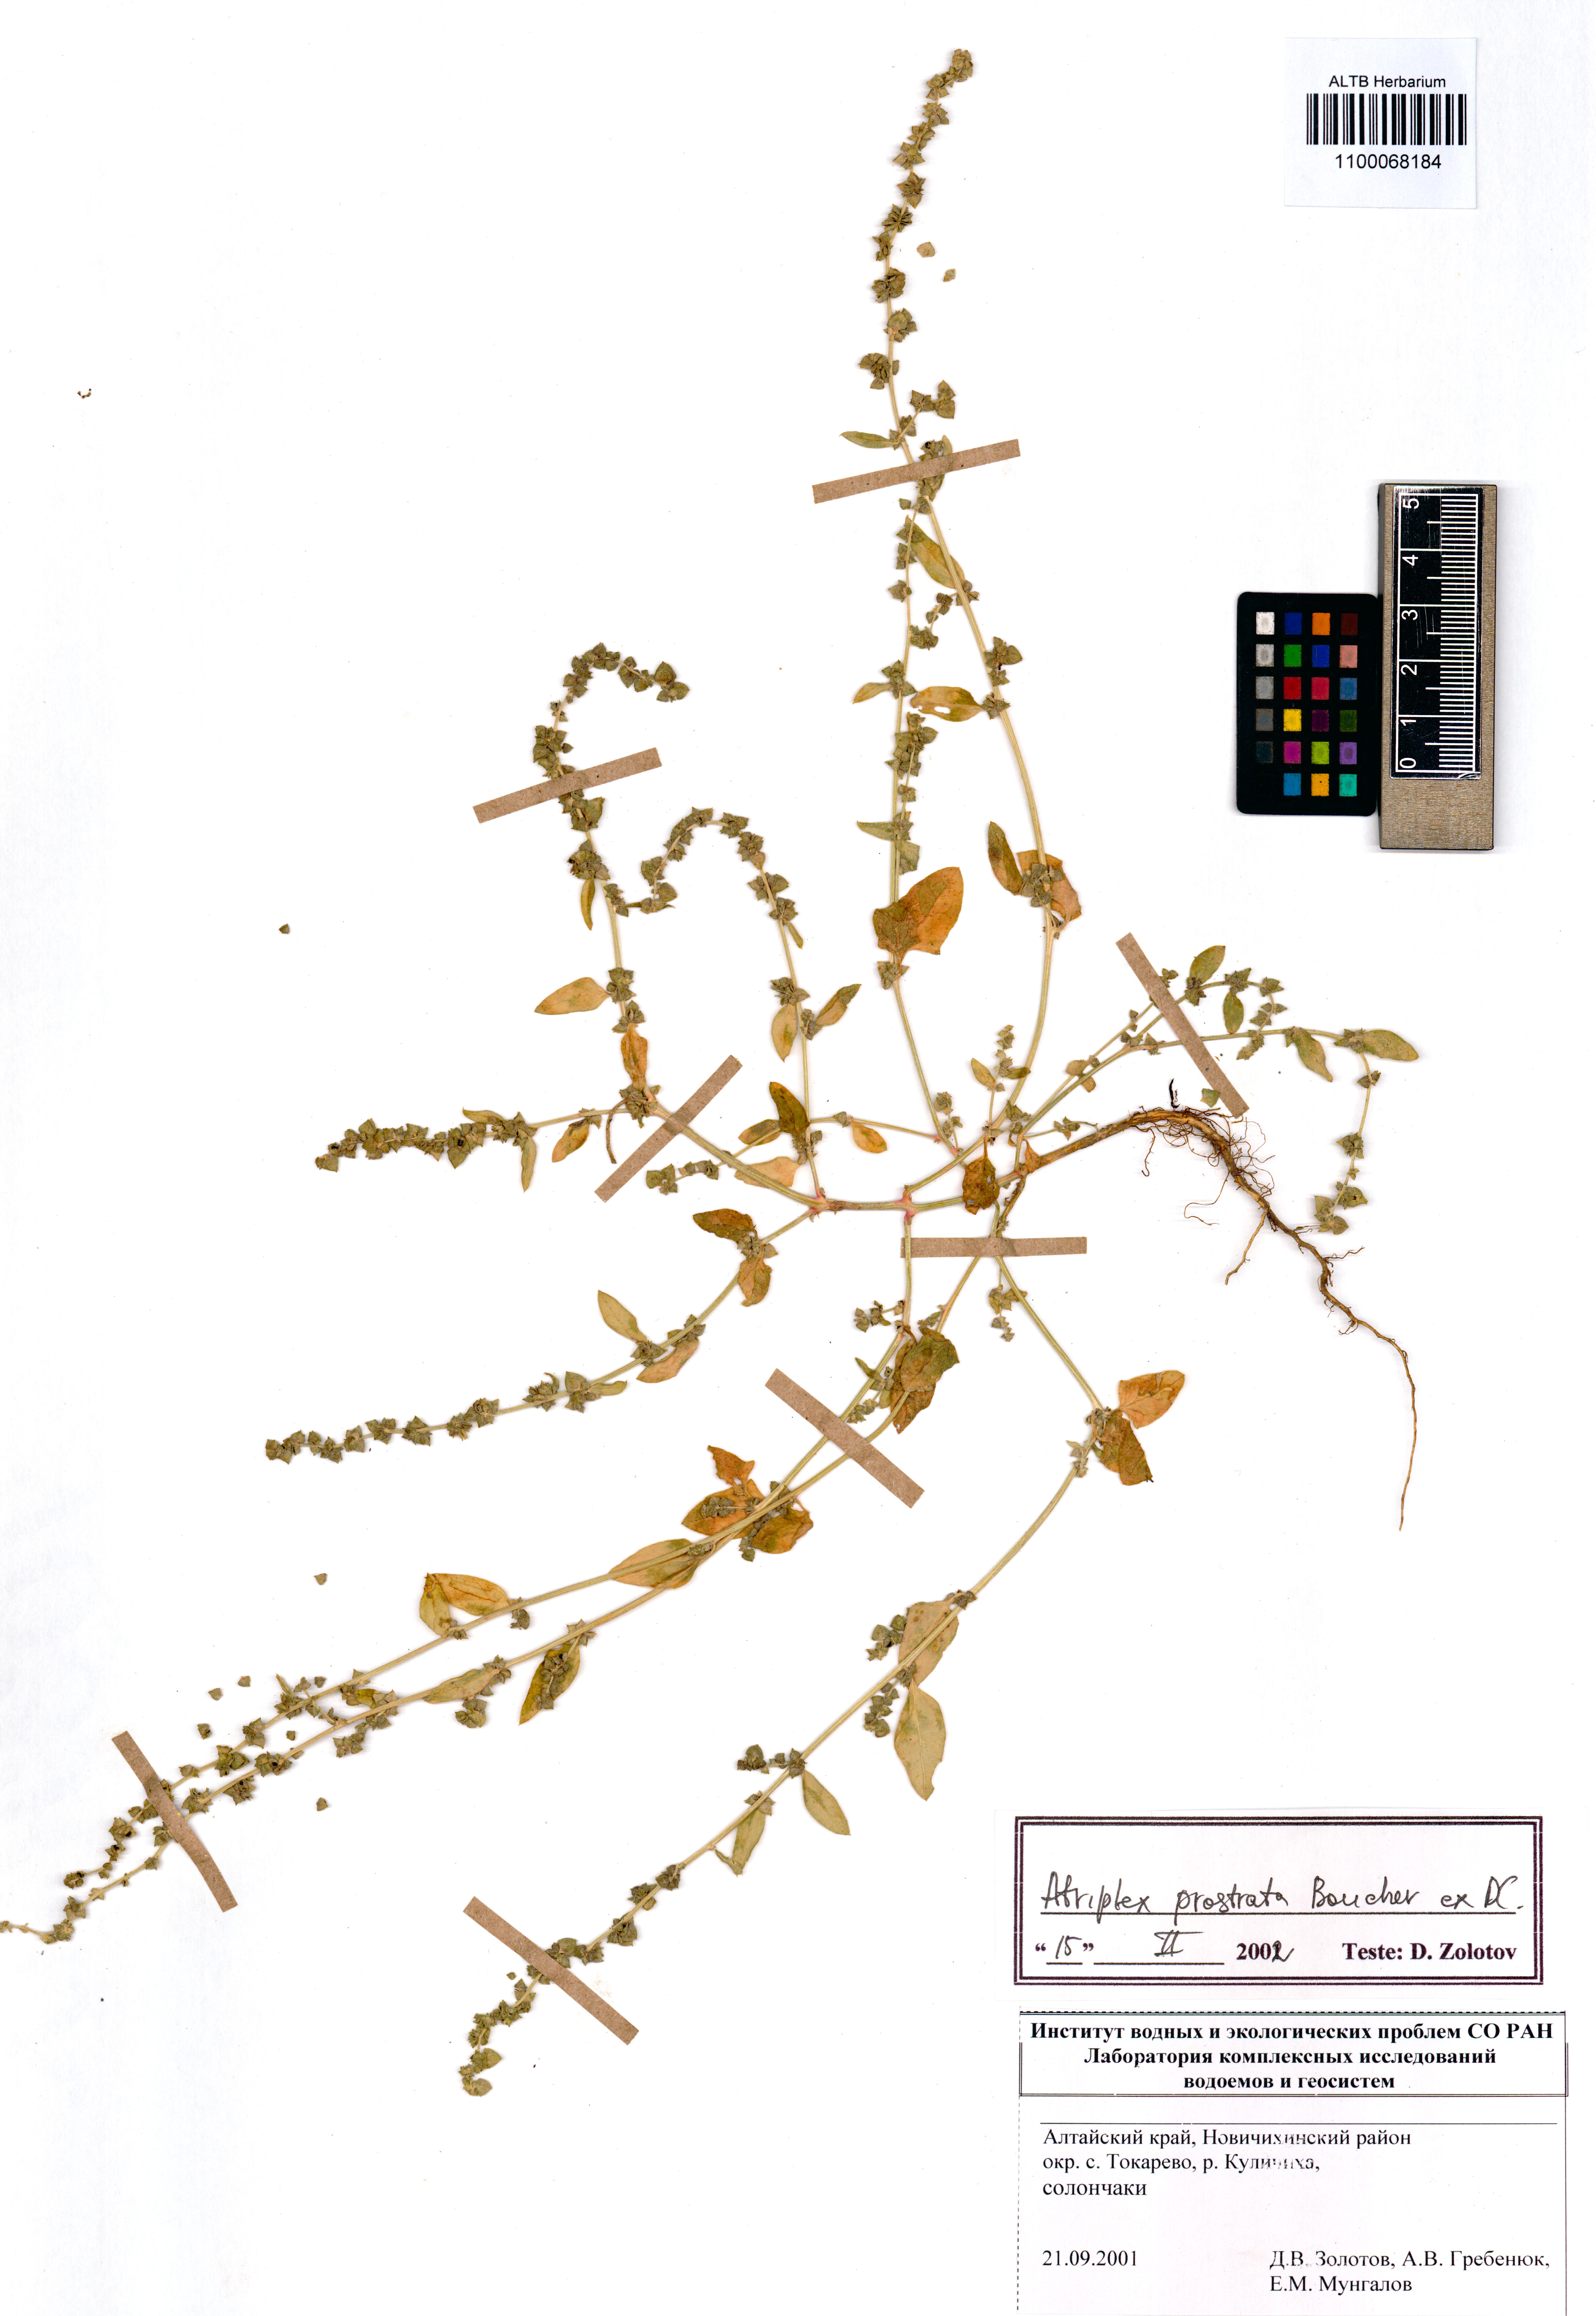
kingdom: Plantae
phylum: Tracheophyta
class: Magnoliopsida
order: Caryophyllales
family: Amaranthaceae
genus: Atriplex
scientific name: Atriplex prostrata
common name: Spear-leaved orache
